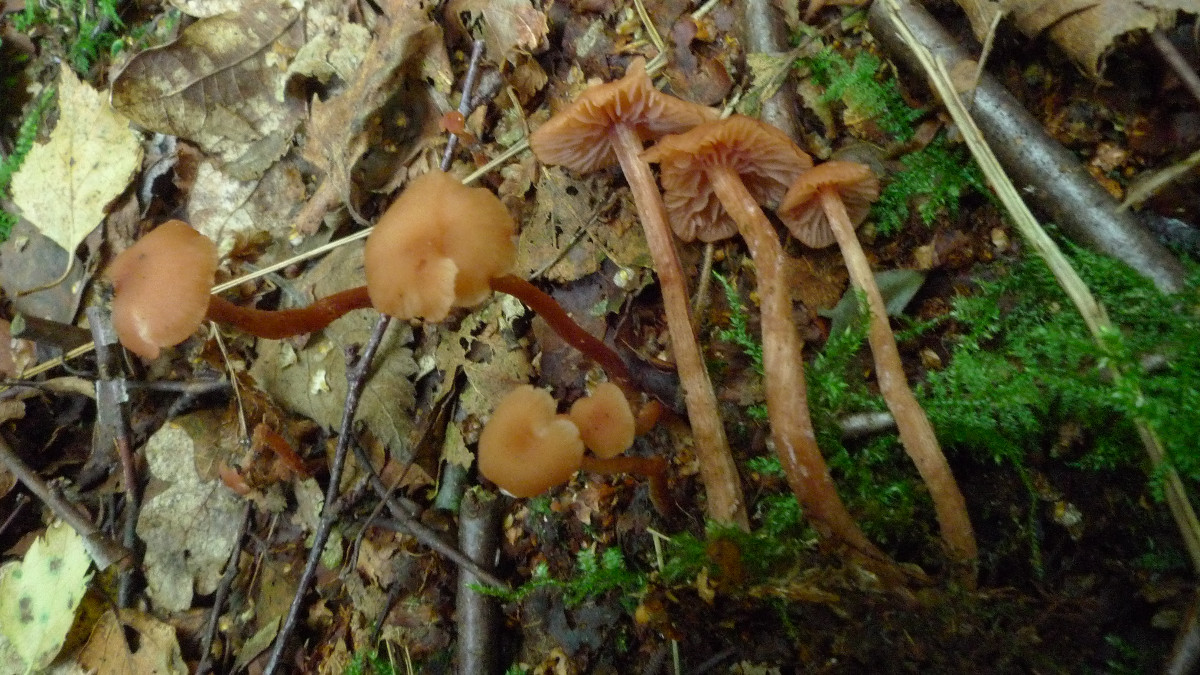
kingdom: Fungi
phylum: Basidiomycota
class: Agaricomycetes
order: Agaricales
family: Hydnangiaceae
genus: Laccaria
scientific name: Laccaria laccata
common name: rød ametysthat
